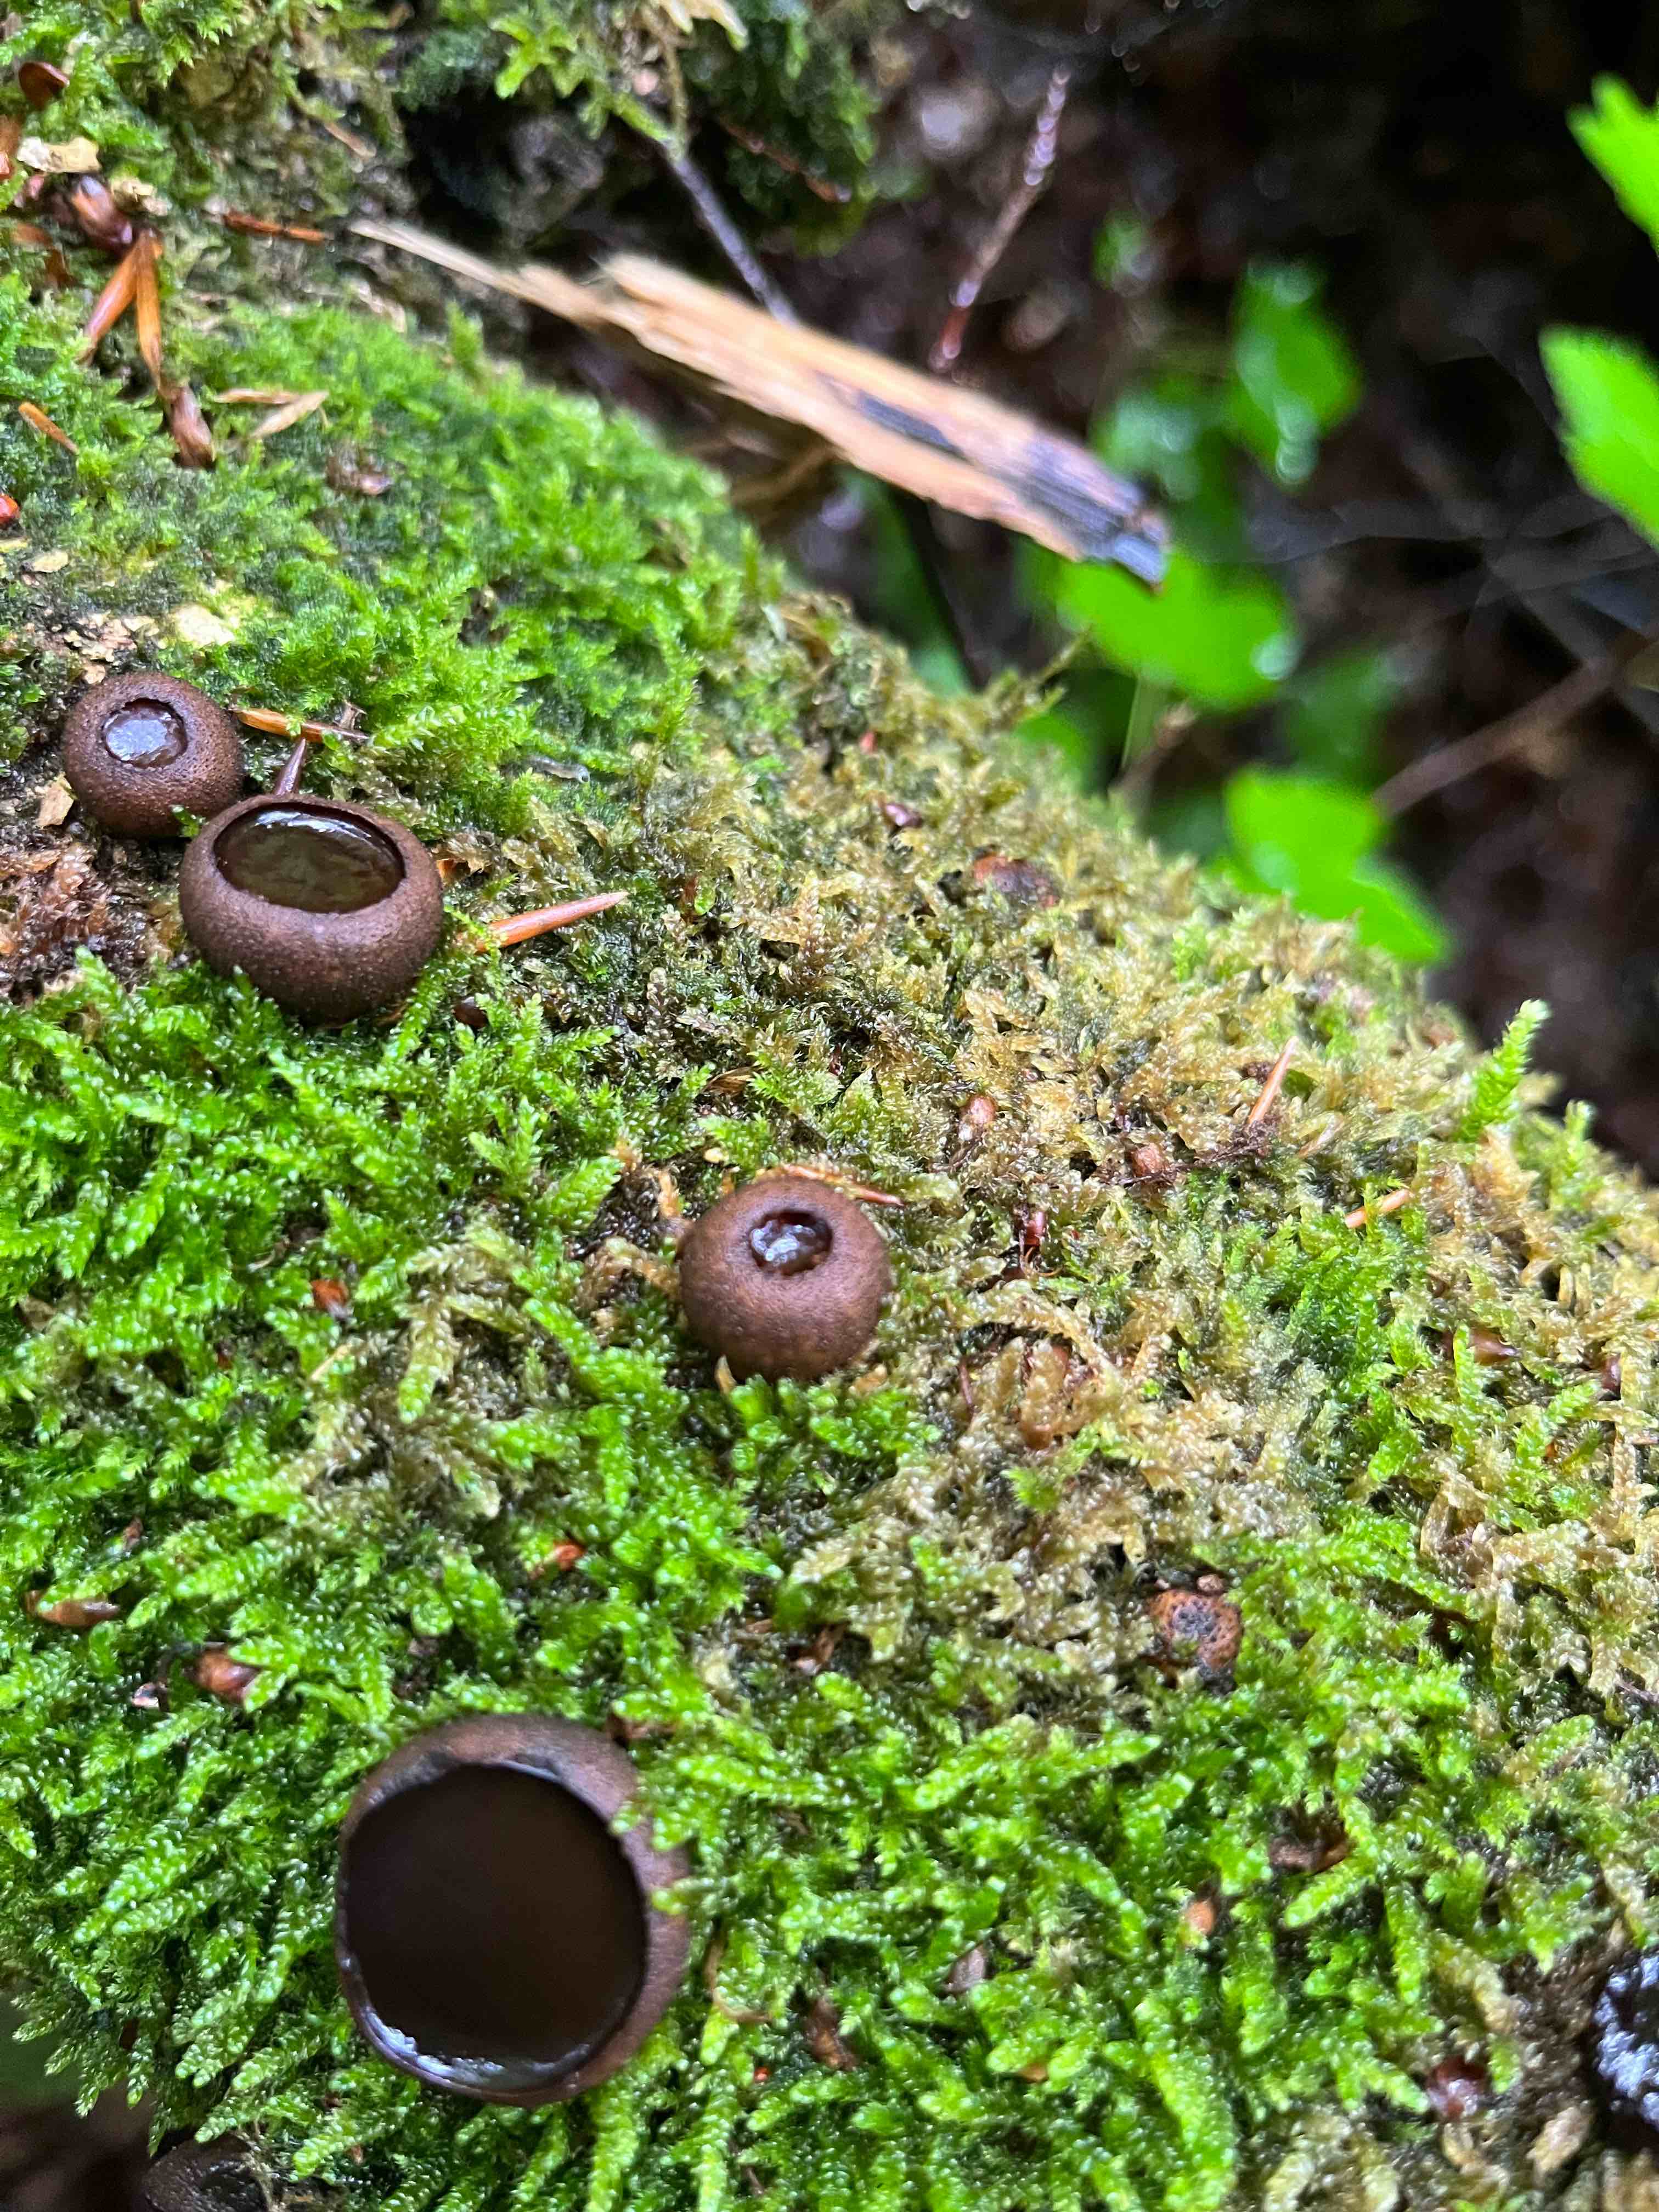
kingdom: Fungi
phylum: Ascomycota
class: Leotiomycetes
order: Phacidiales
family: Phacidiaceae
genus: Bulgaria
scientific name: Bulgaria inquinans
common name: afsmittende topsvamp
